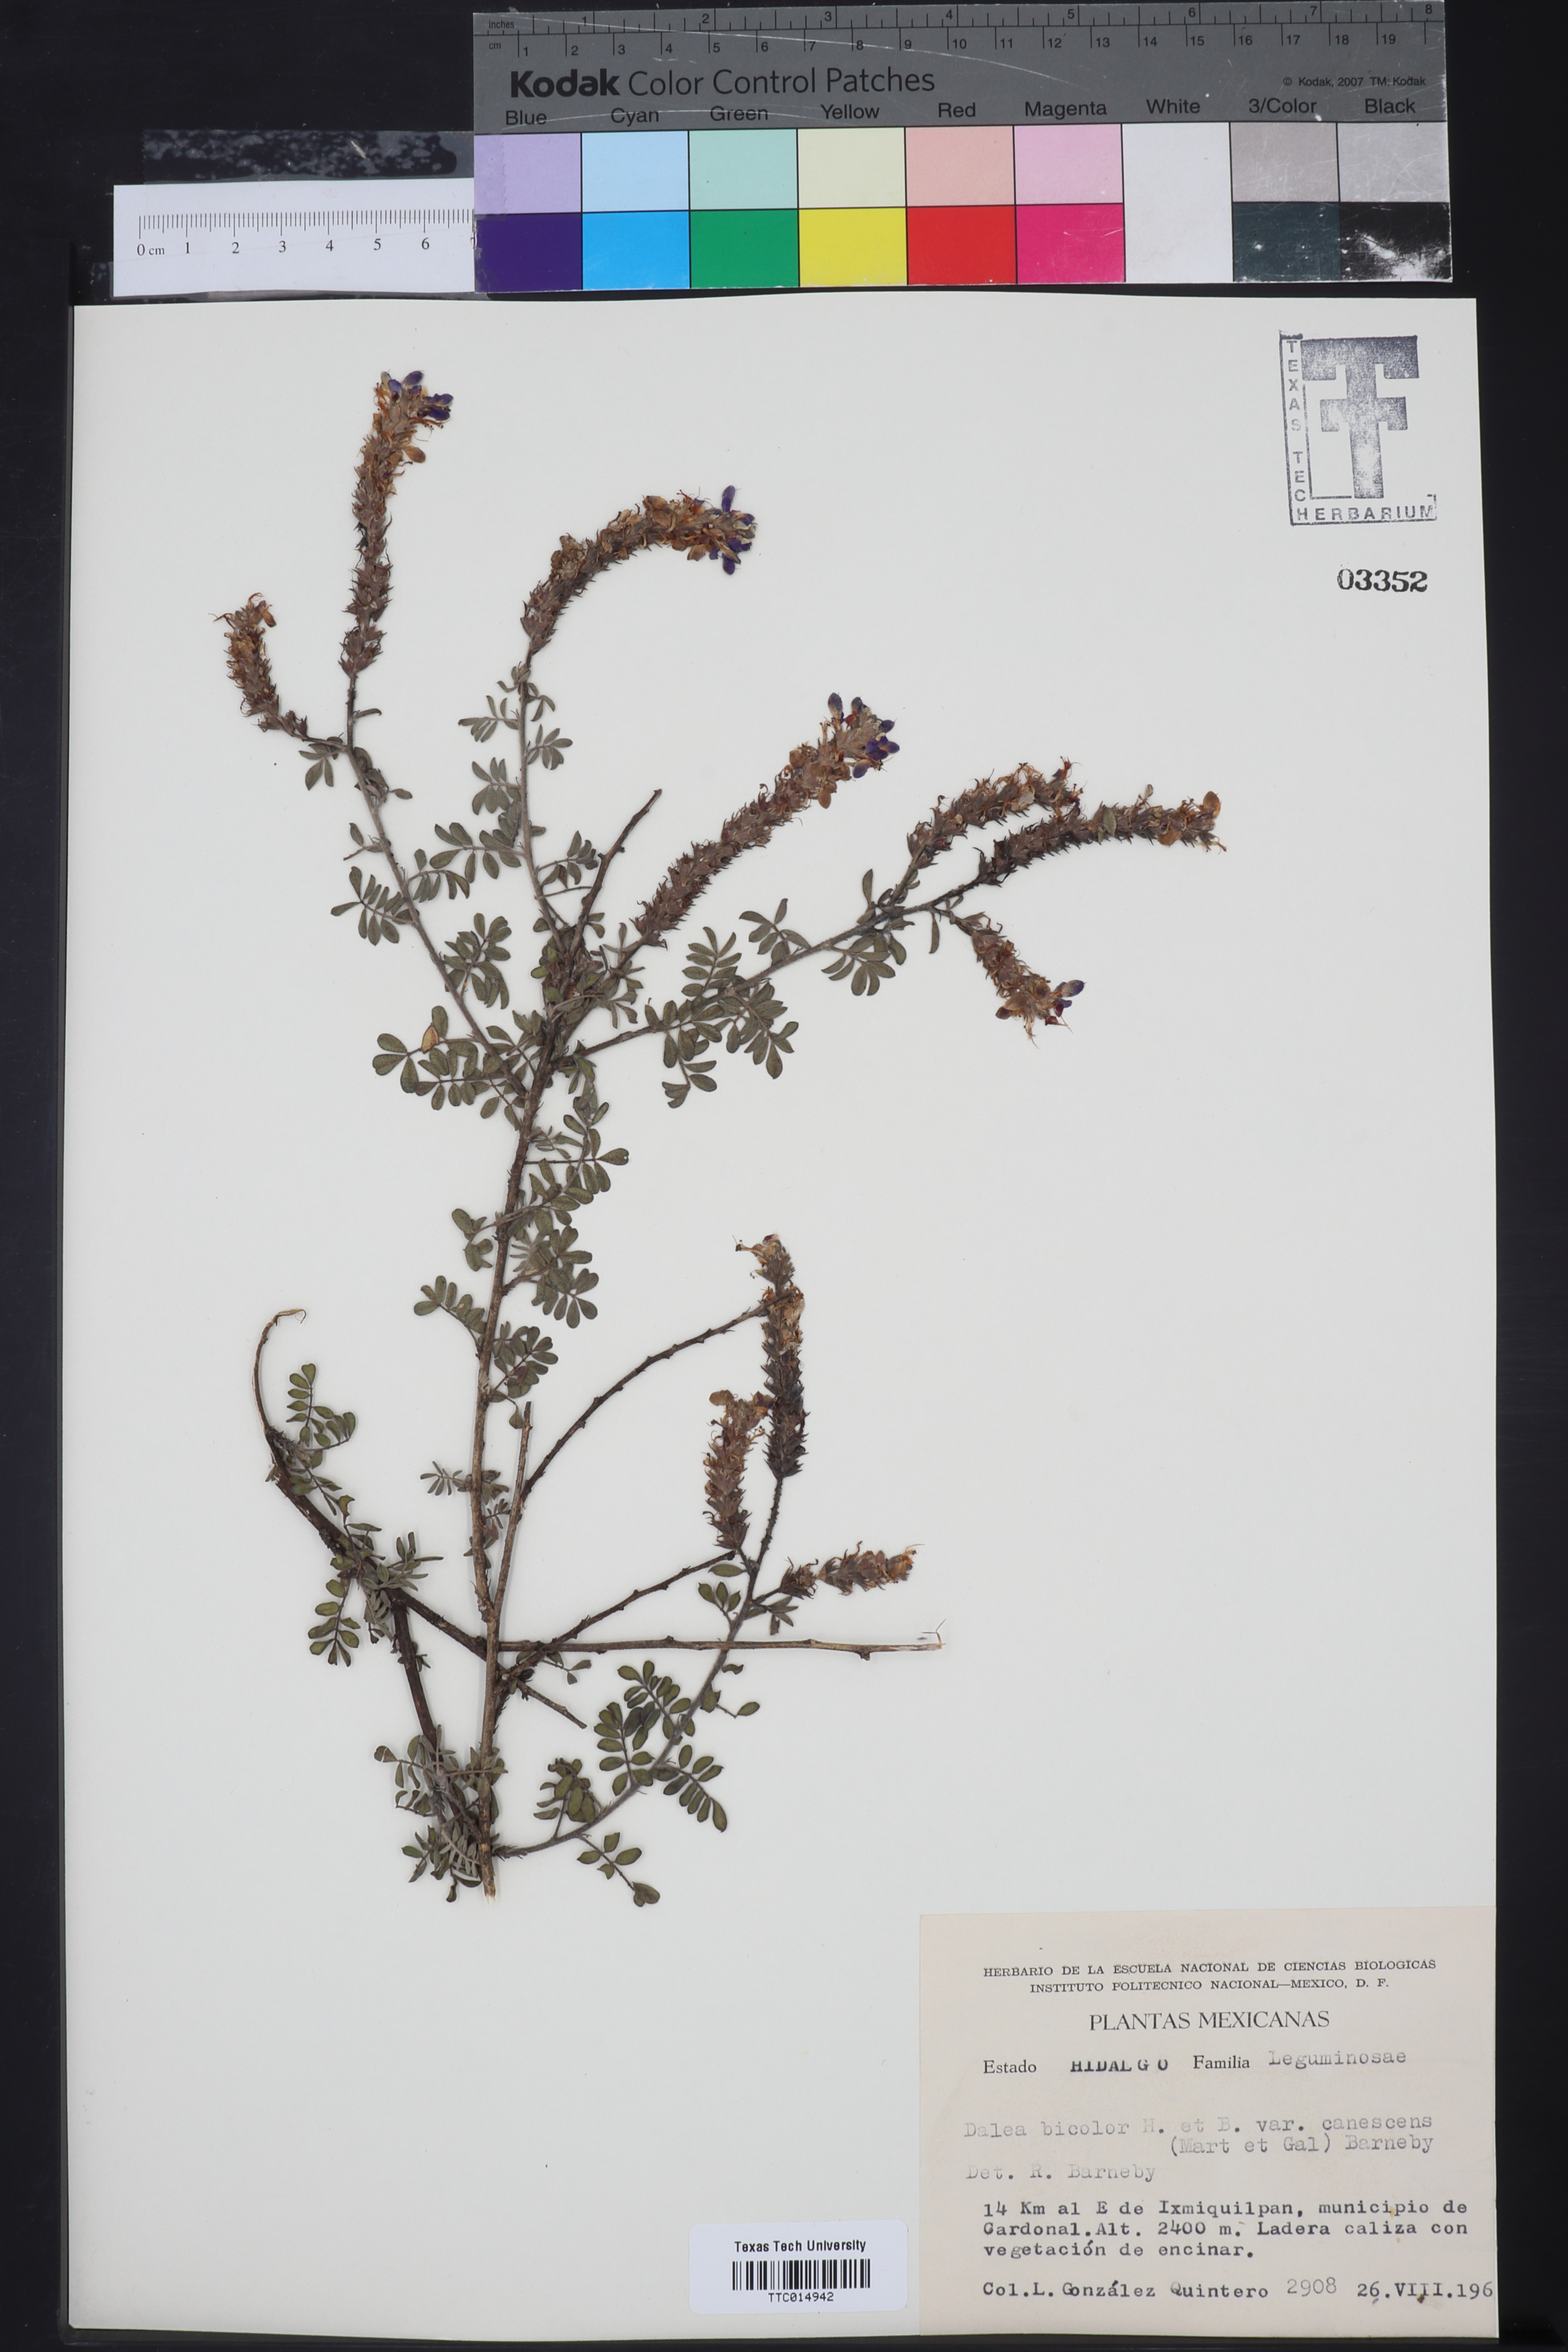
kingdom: Plantae
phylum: Tracheophyta
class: Magnoliopsida
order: Fabales
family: Fabaceae
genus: Dalea
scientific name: Dalea bicolor
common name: Silver prairie-clover
